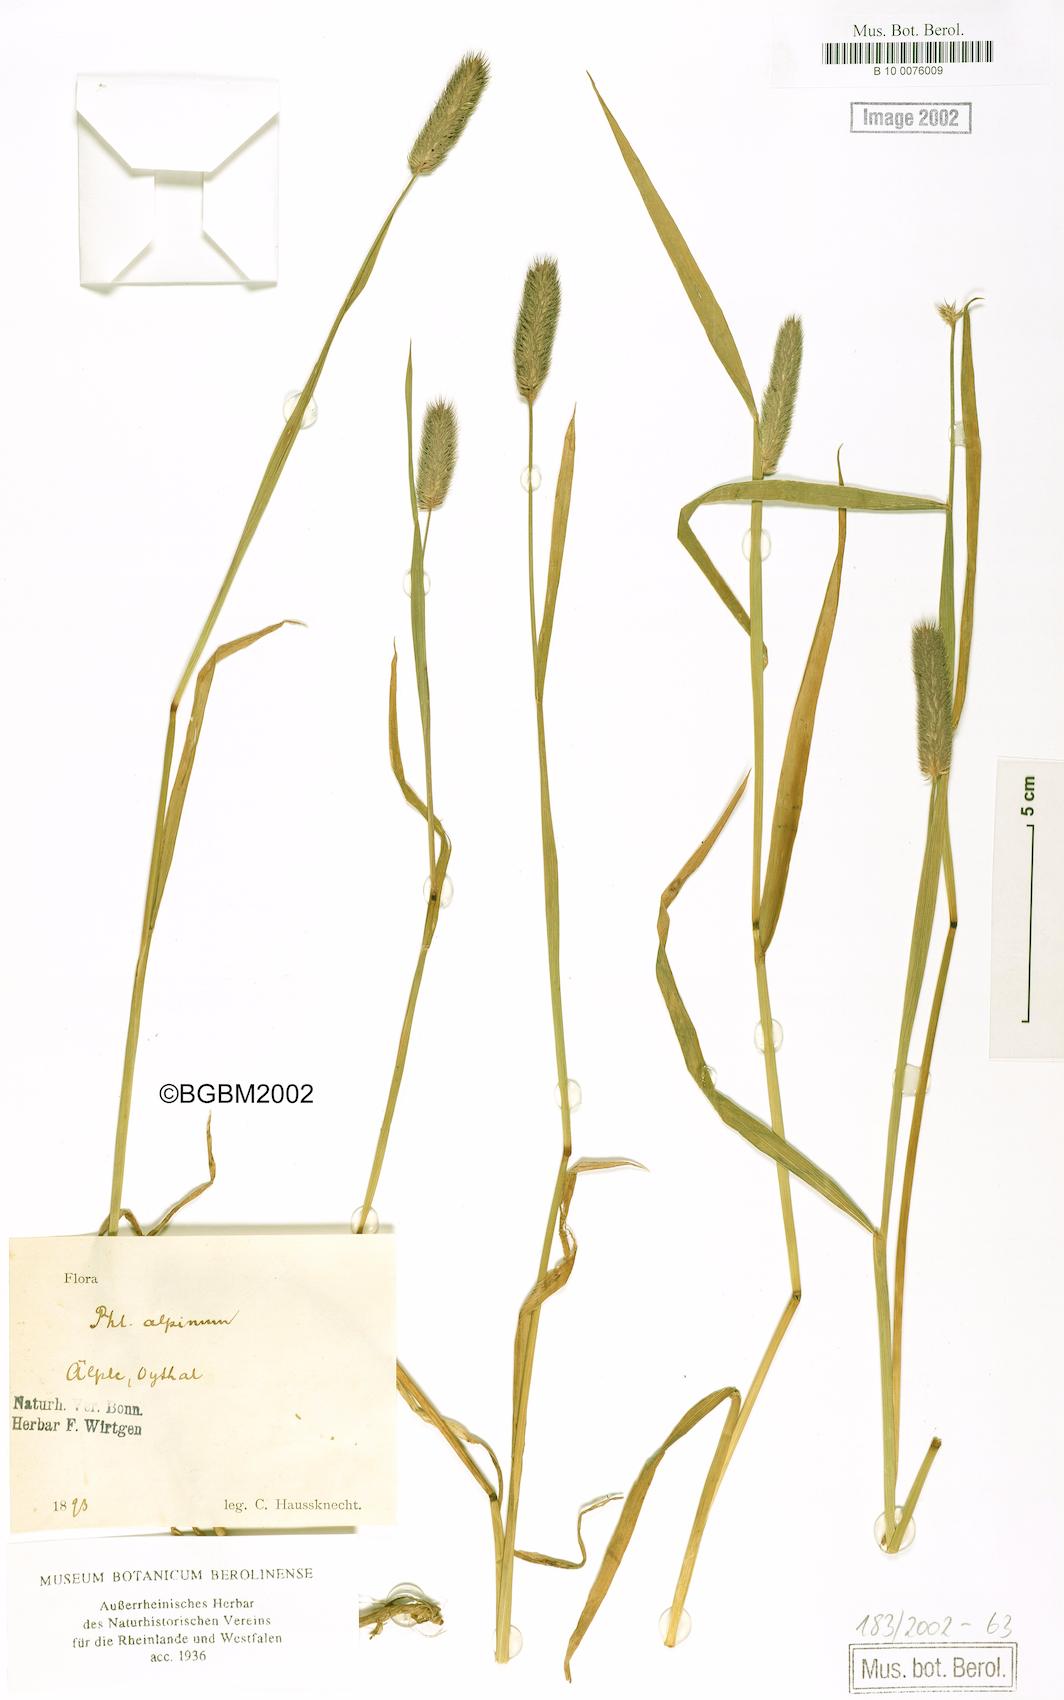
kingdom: Plantae
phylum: Tracheophyta
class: Liliopsida
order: Poales
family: Poaceae
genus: Phleum
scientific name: Phleum alpinum
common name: Alpine cat's-tail
